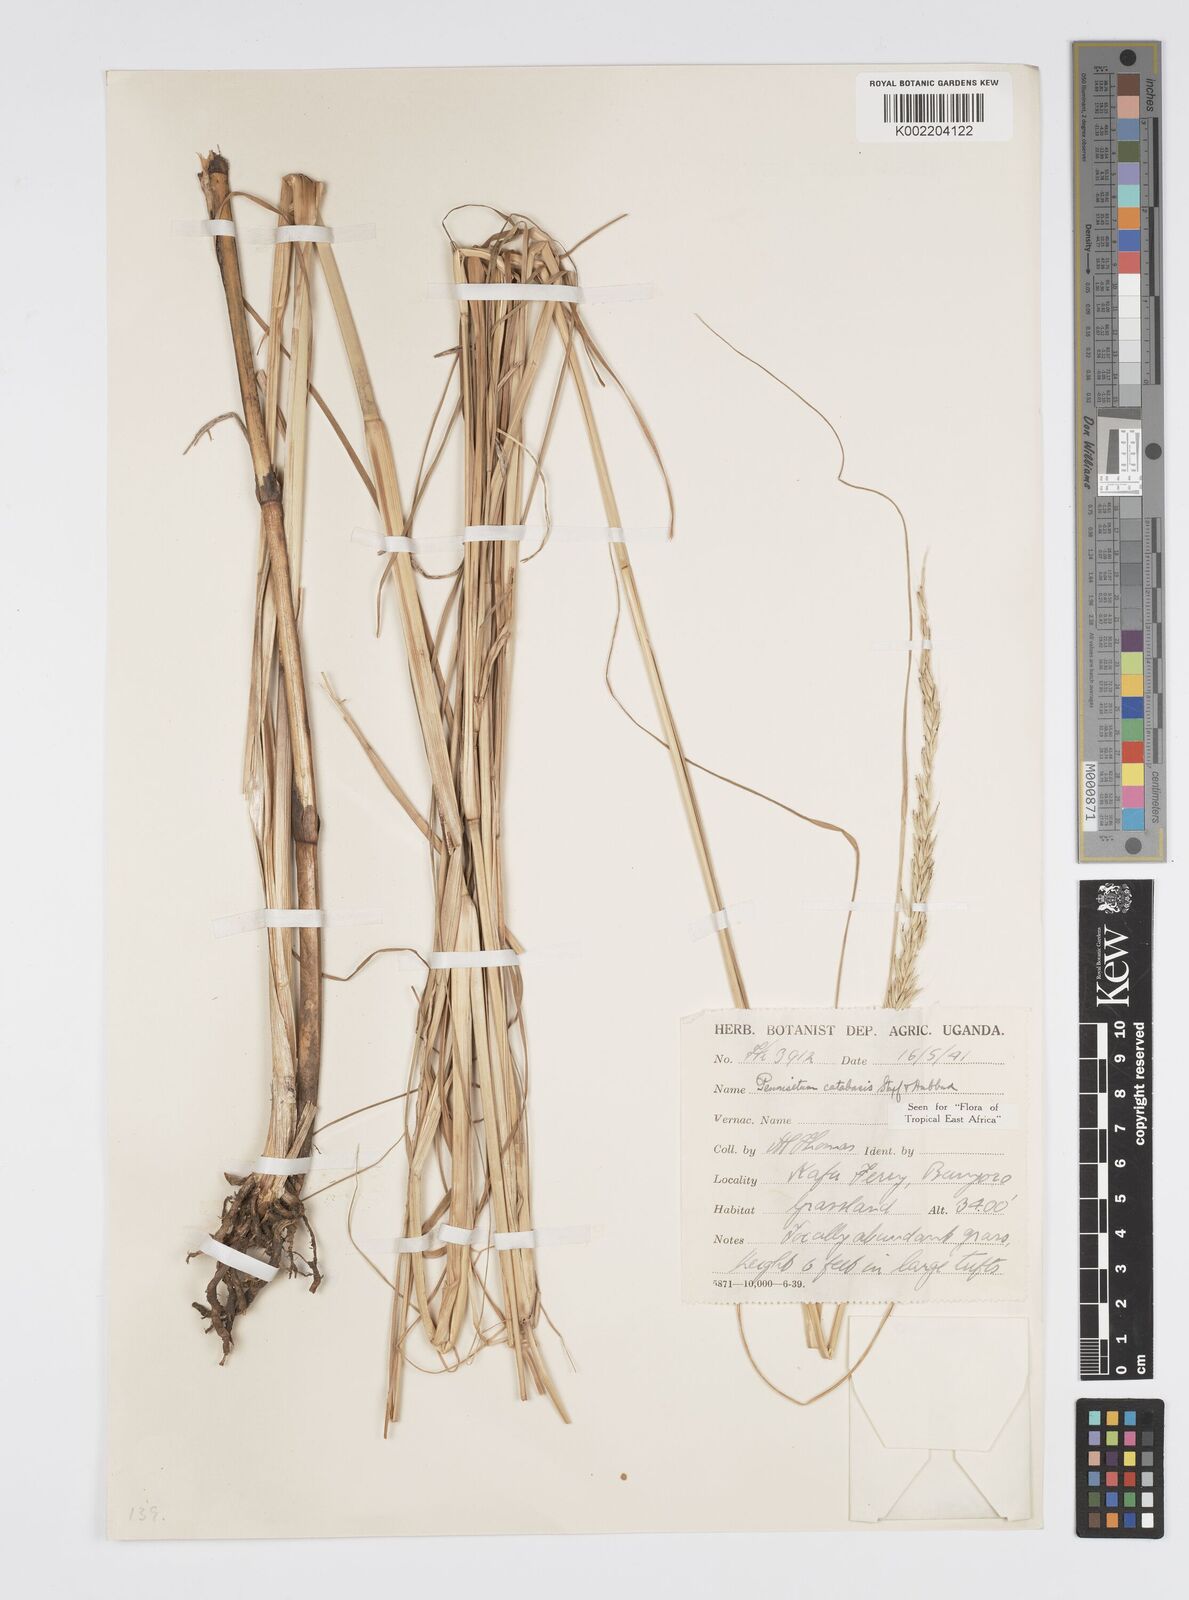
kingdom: Plantae
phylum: Tracheophyta
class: Liliopsida
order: Poales
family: Poaceae
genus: Cenchrus
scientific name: Cenchrus hohenackeri
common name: Moya grass
